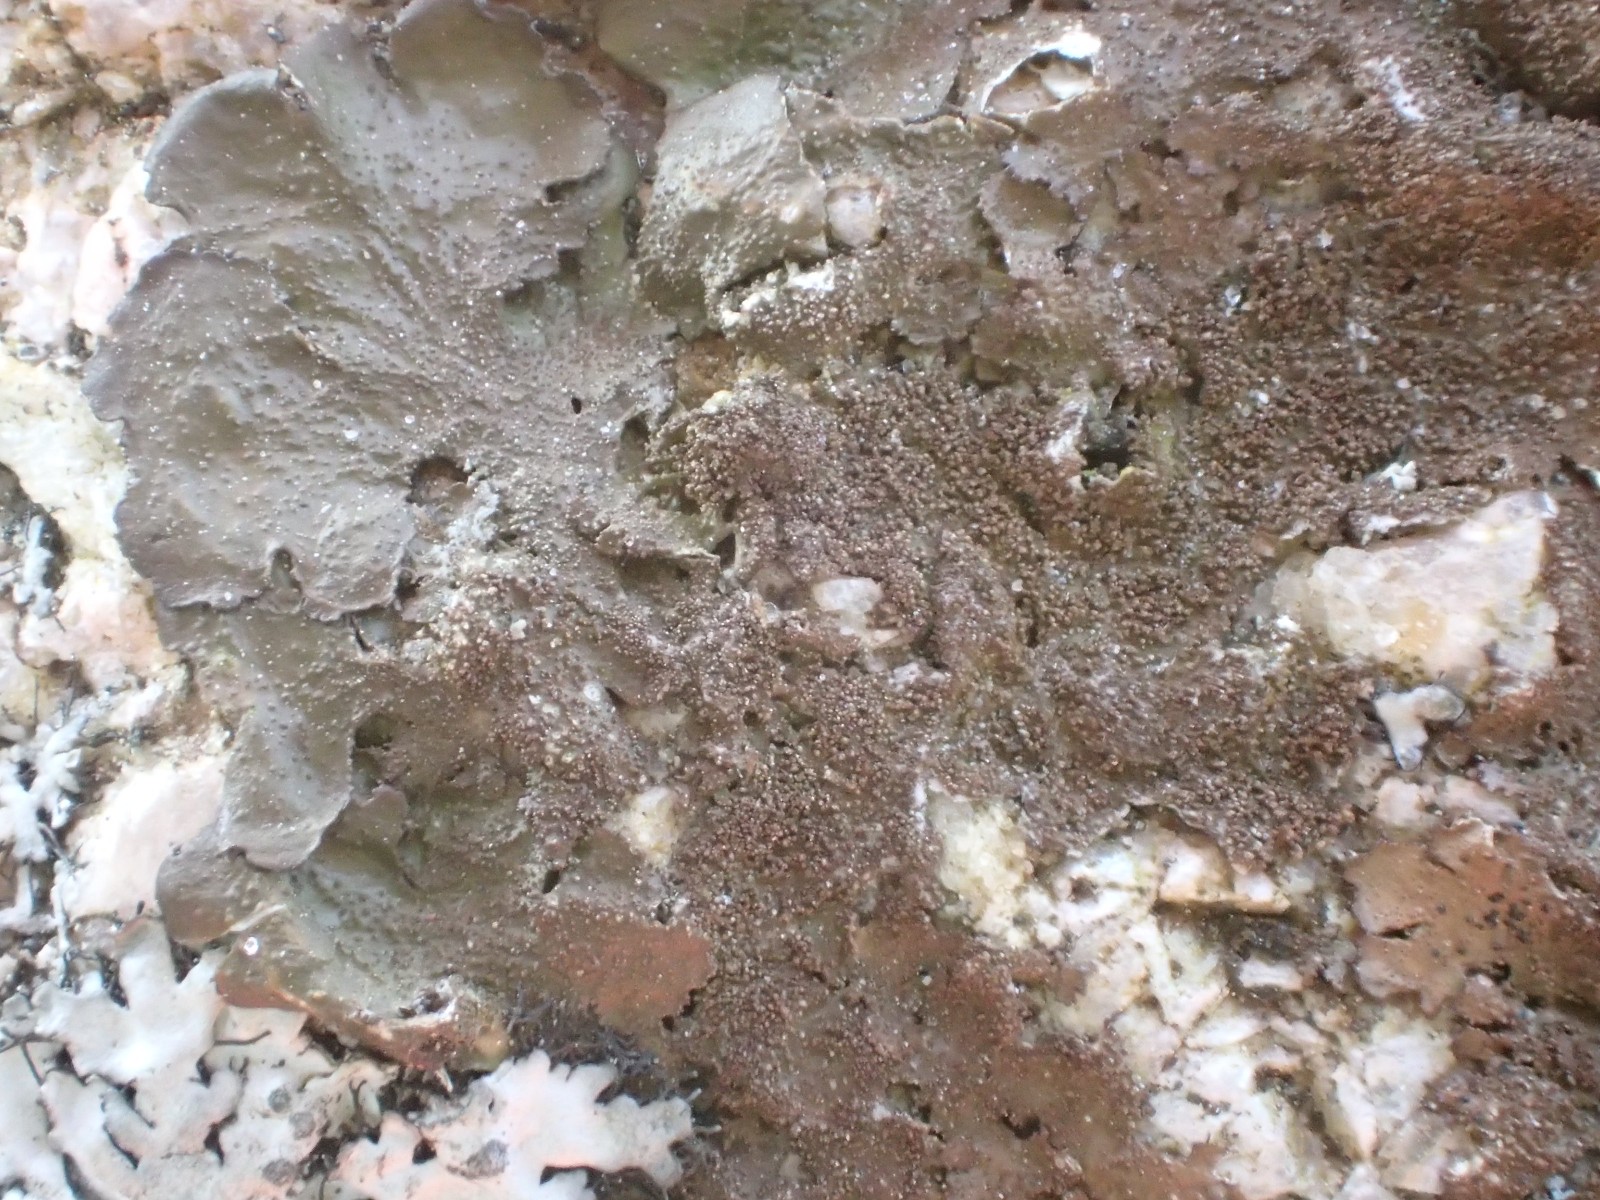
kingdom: Fungi
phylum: Ascomycota
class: Lecanoromycetes
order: Lecanorales
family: Parmeliaceae
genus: Melanelixia
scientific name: Melanelixia fuliginosa
